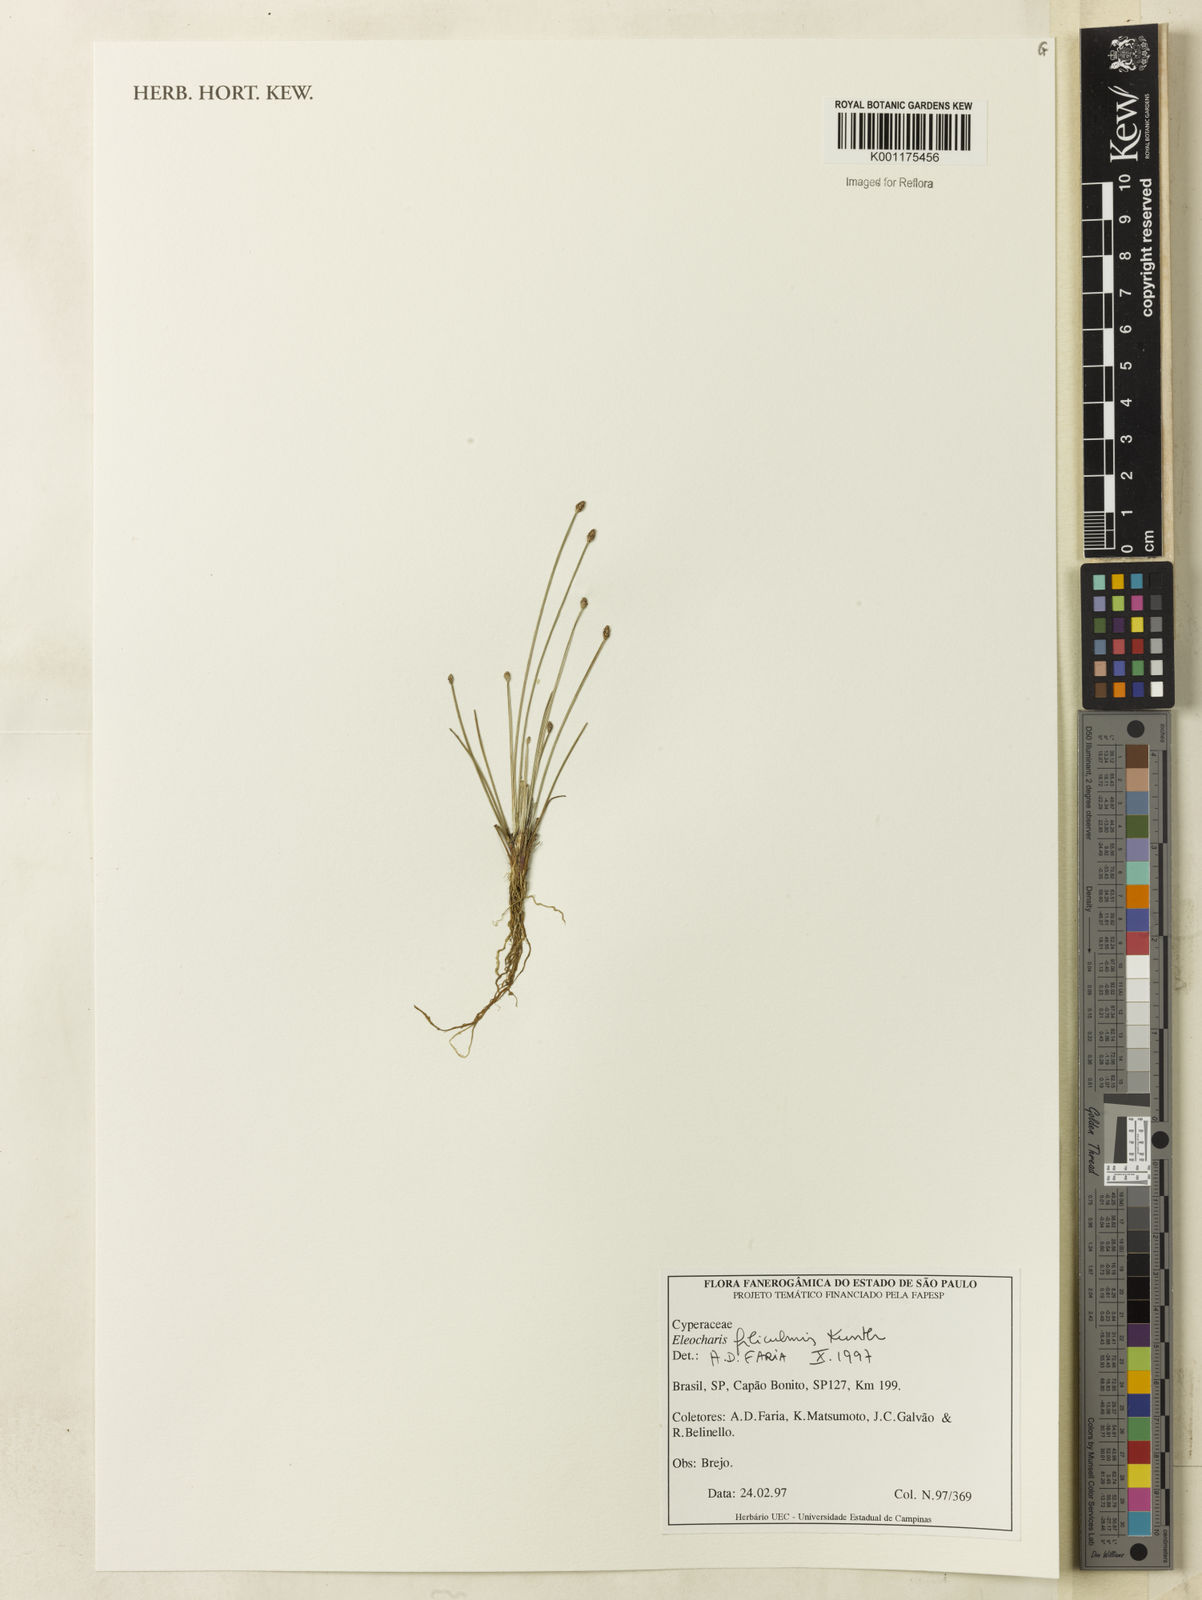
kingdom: Plantae
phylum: Tracheophyta
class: Liliopsida
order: Poales
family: Cyperaceae
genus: Eleocharis
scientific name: Eleocharis filiculmis
